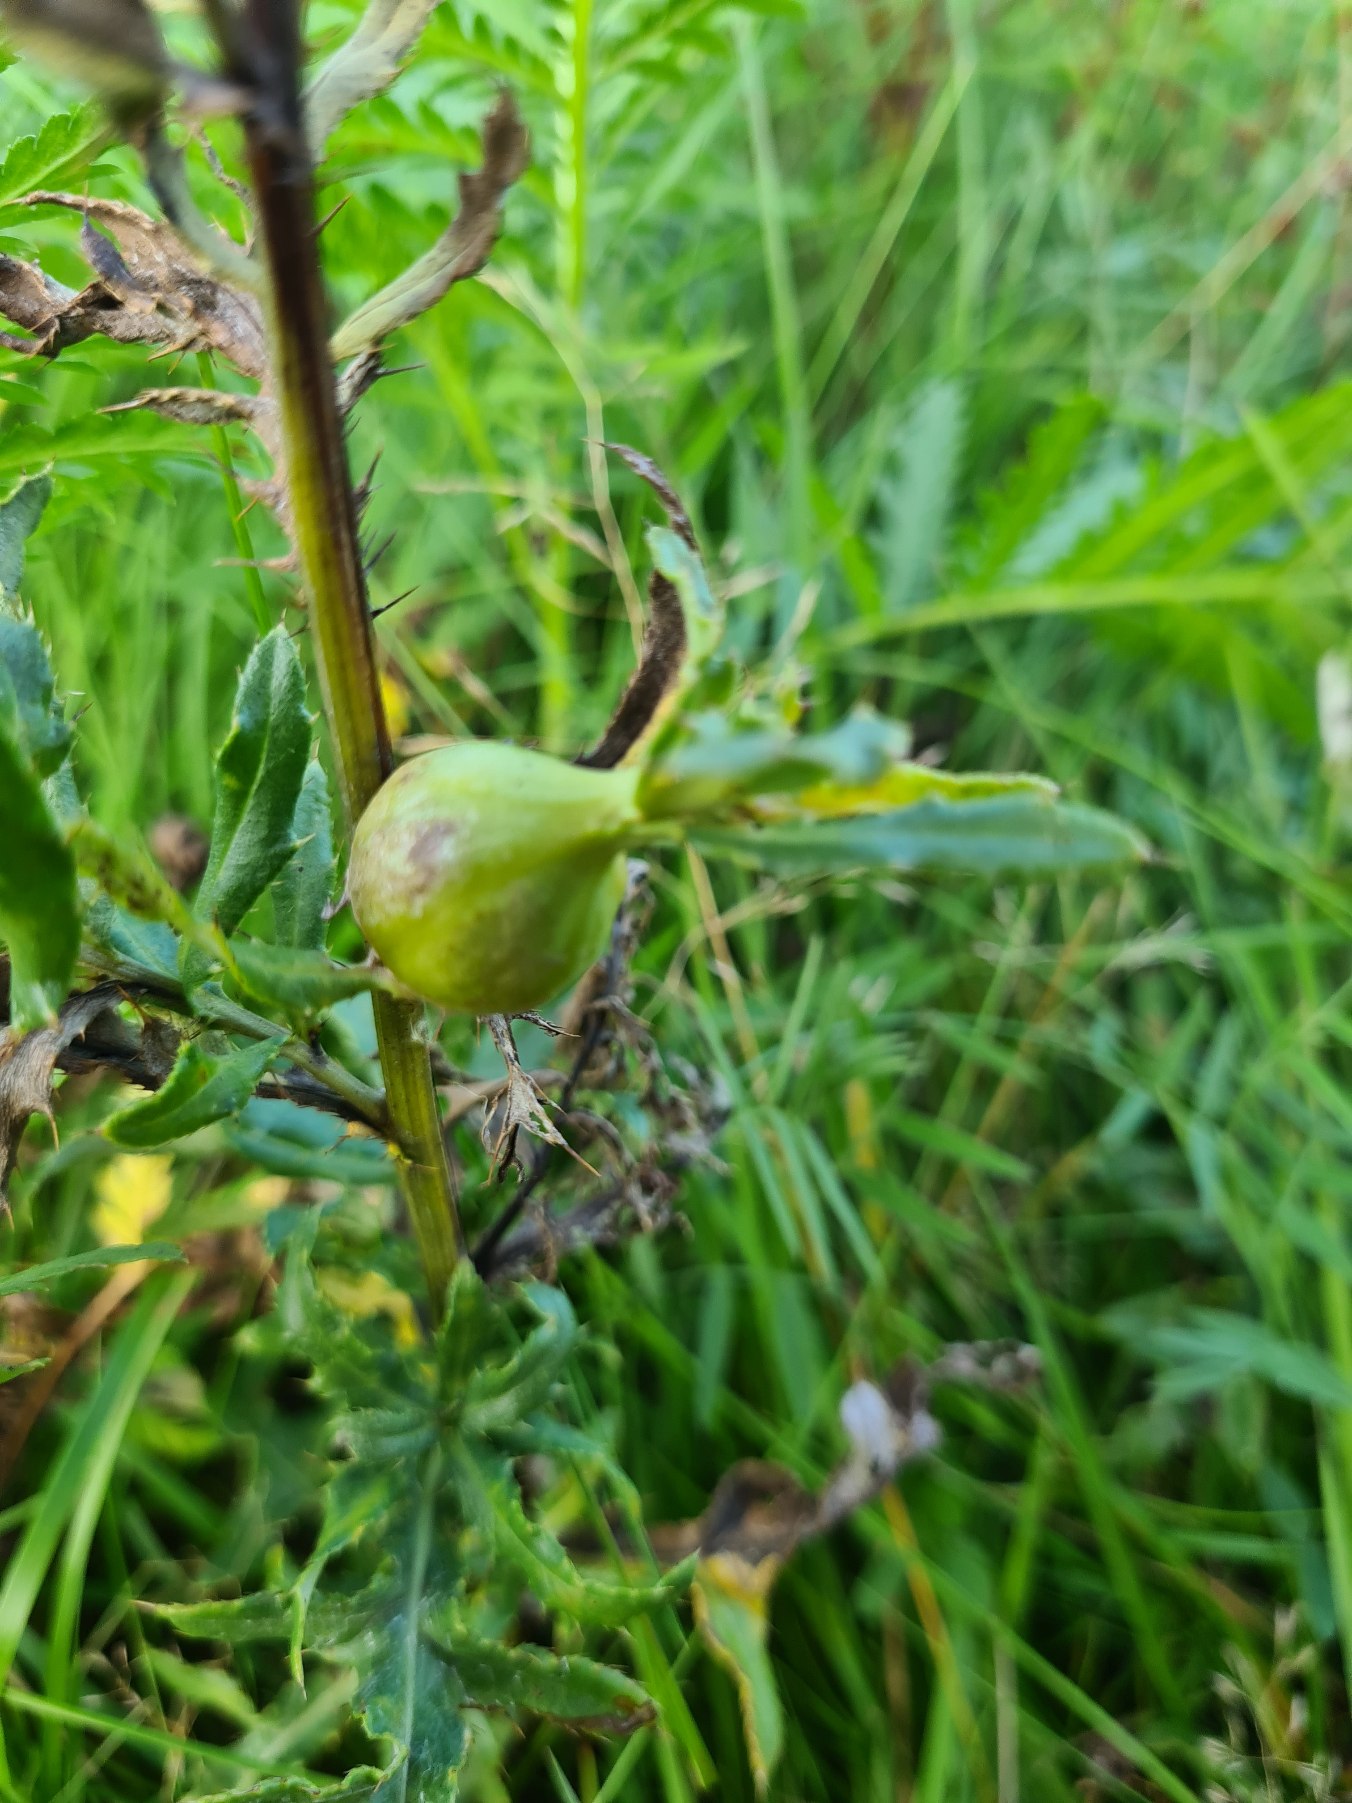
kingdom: Animalia
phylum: Arthropoda
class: Insecta
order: Diptera
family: Tephritidae
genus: Urophora
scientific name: Urophora cardui
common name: Tidselbåndflue
